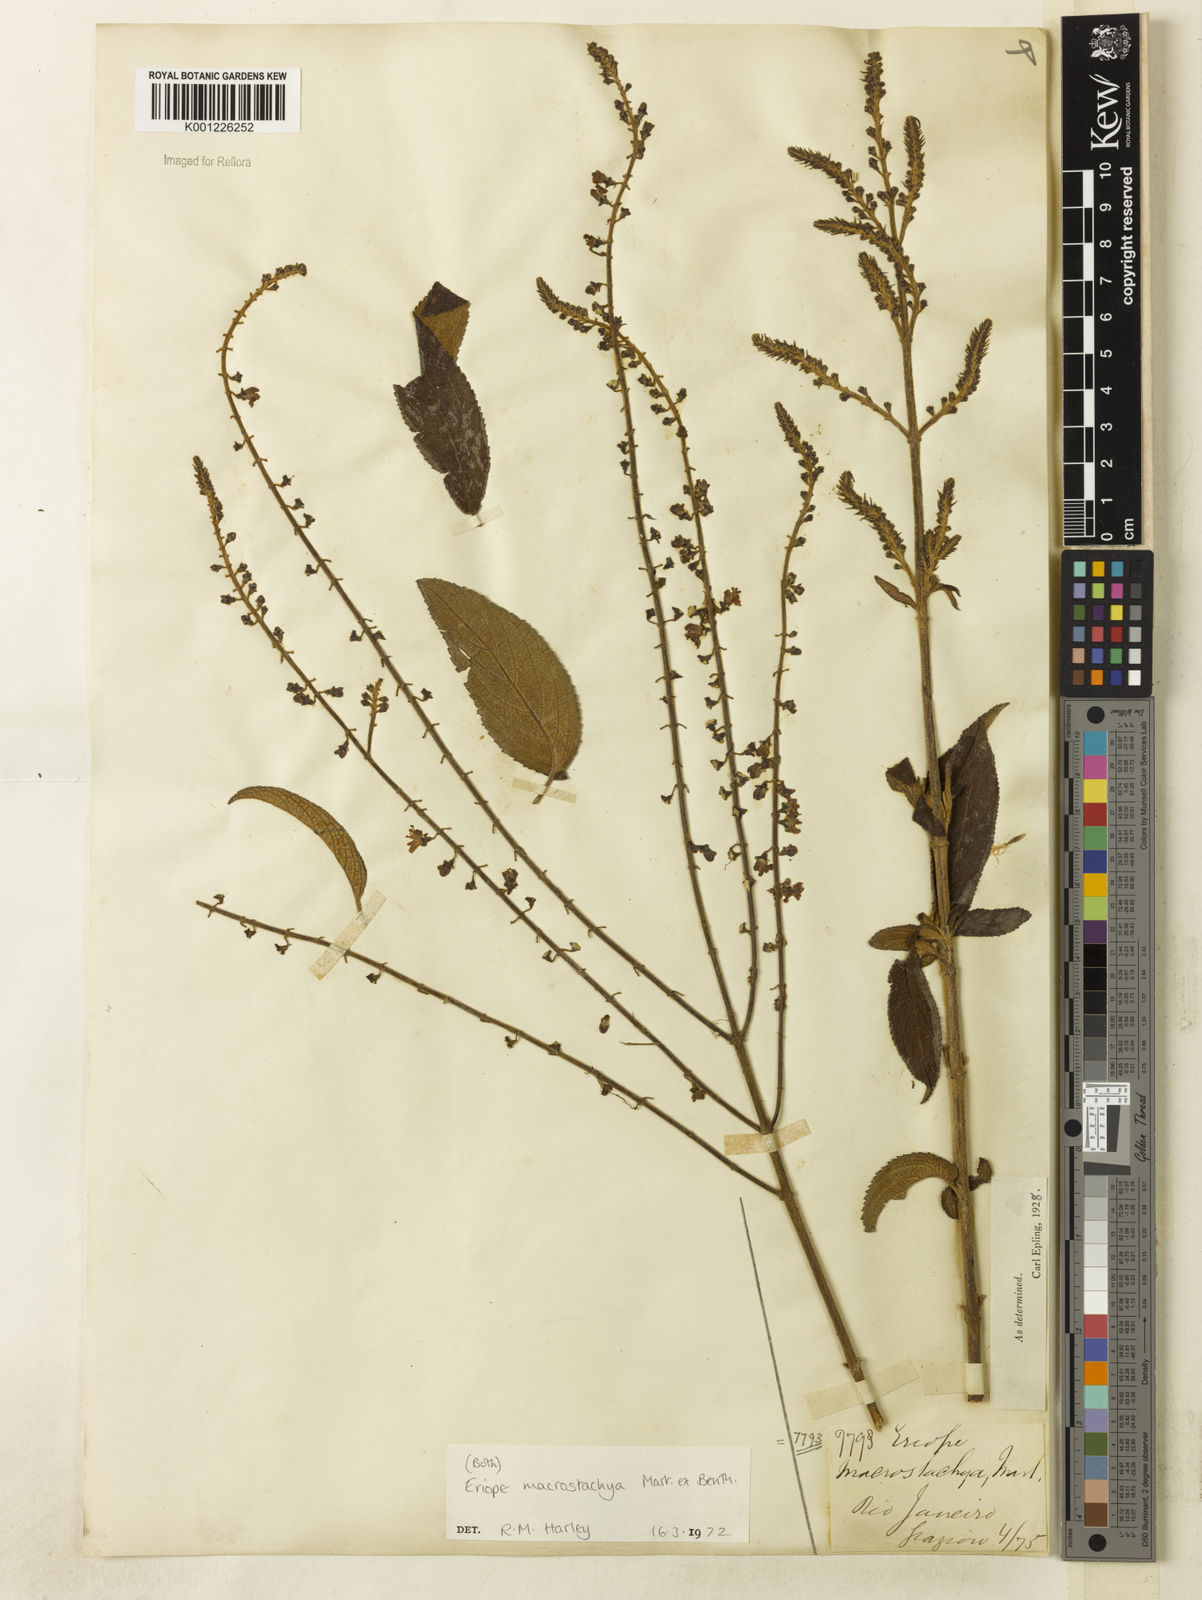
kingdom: Plantae
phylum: Tracheophyta
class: Magnoliopsida
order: Lamiales
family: Lamiaceae
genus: Eriope
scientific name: Eriope macrostachya
